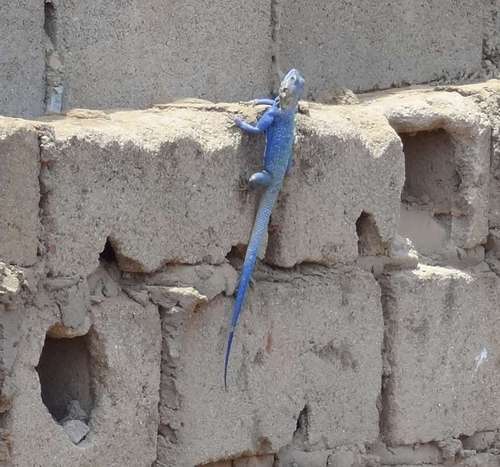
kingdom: Animalia
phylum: Chordata
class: Squamata
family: Agamidae
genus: Agama
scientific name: Agama mucosoensis
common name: Mucoso agama
